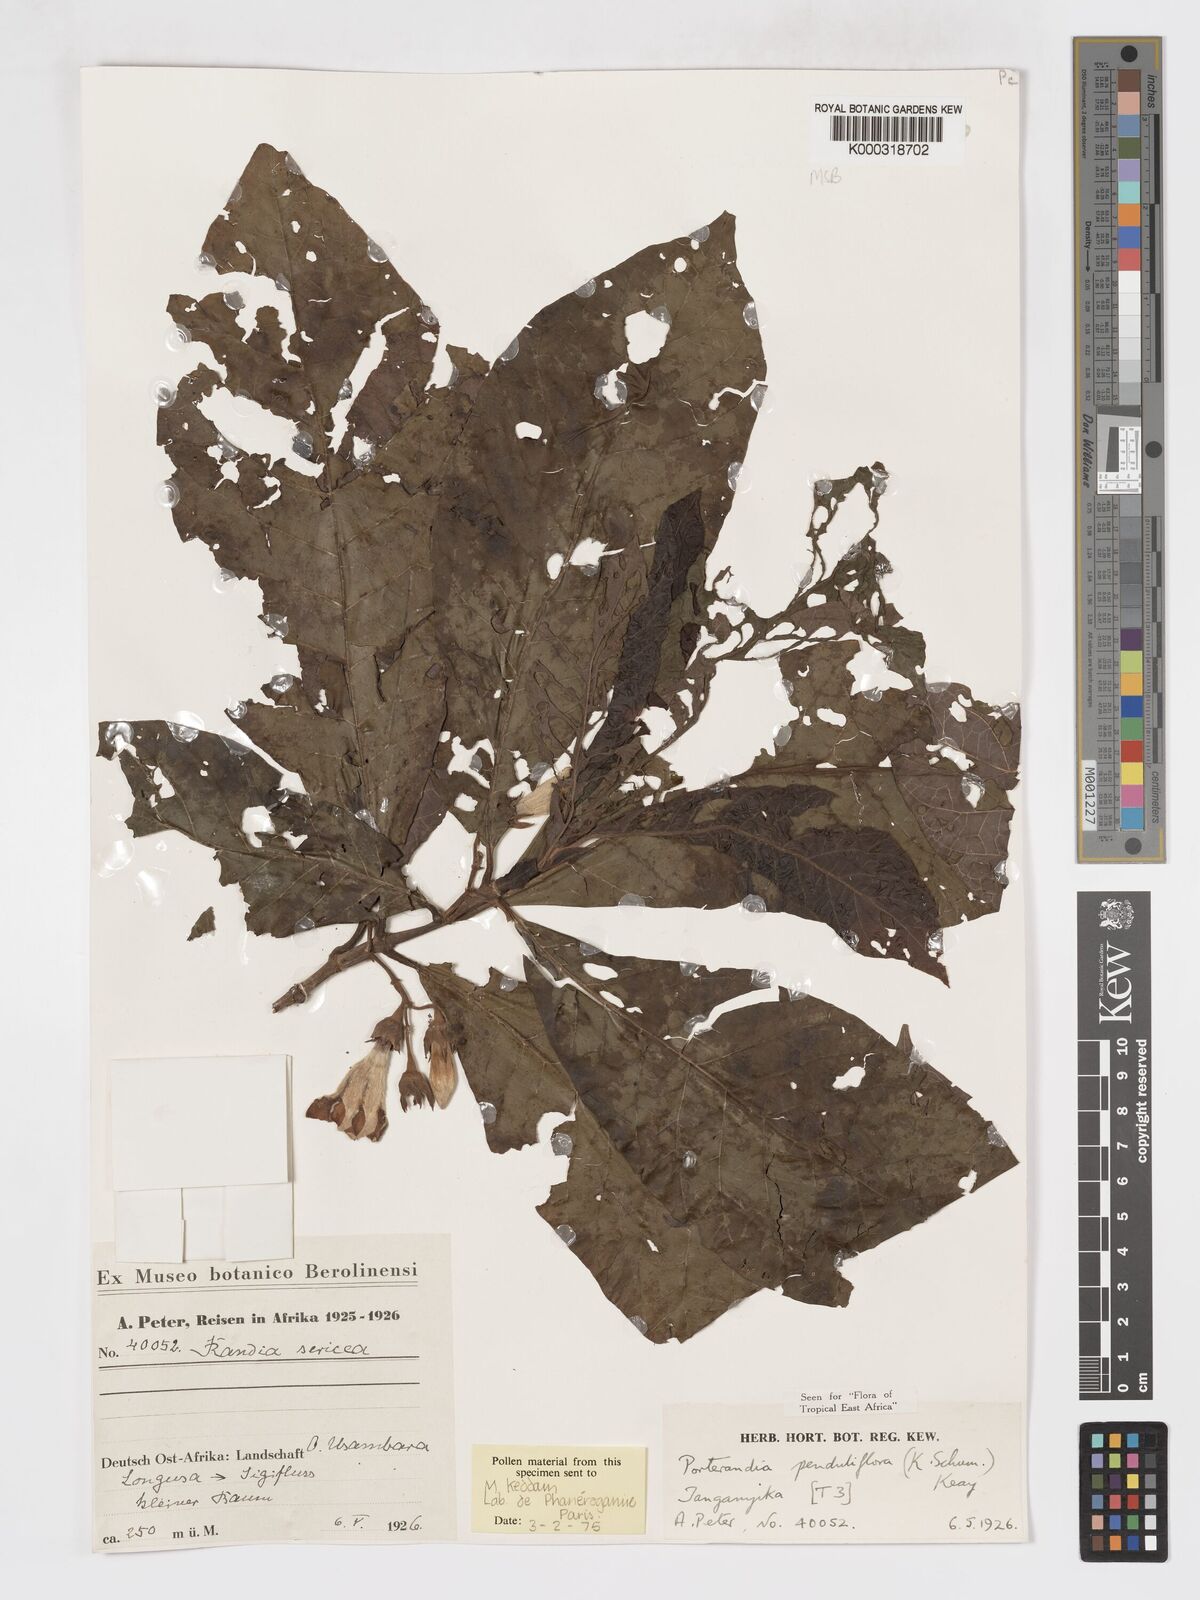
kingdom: Plantae
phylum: Tracheophyta
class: Magnoliopsida
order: Gentianales
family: Rubiaceae
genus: Aoranthe
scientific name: Aoranthe penduliflora
